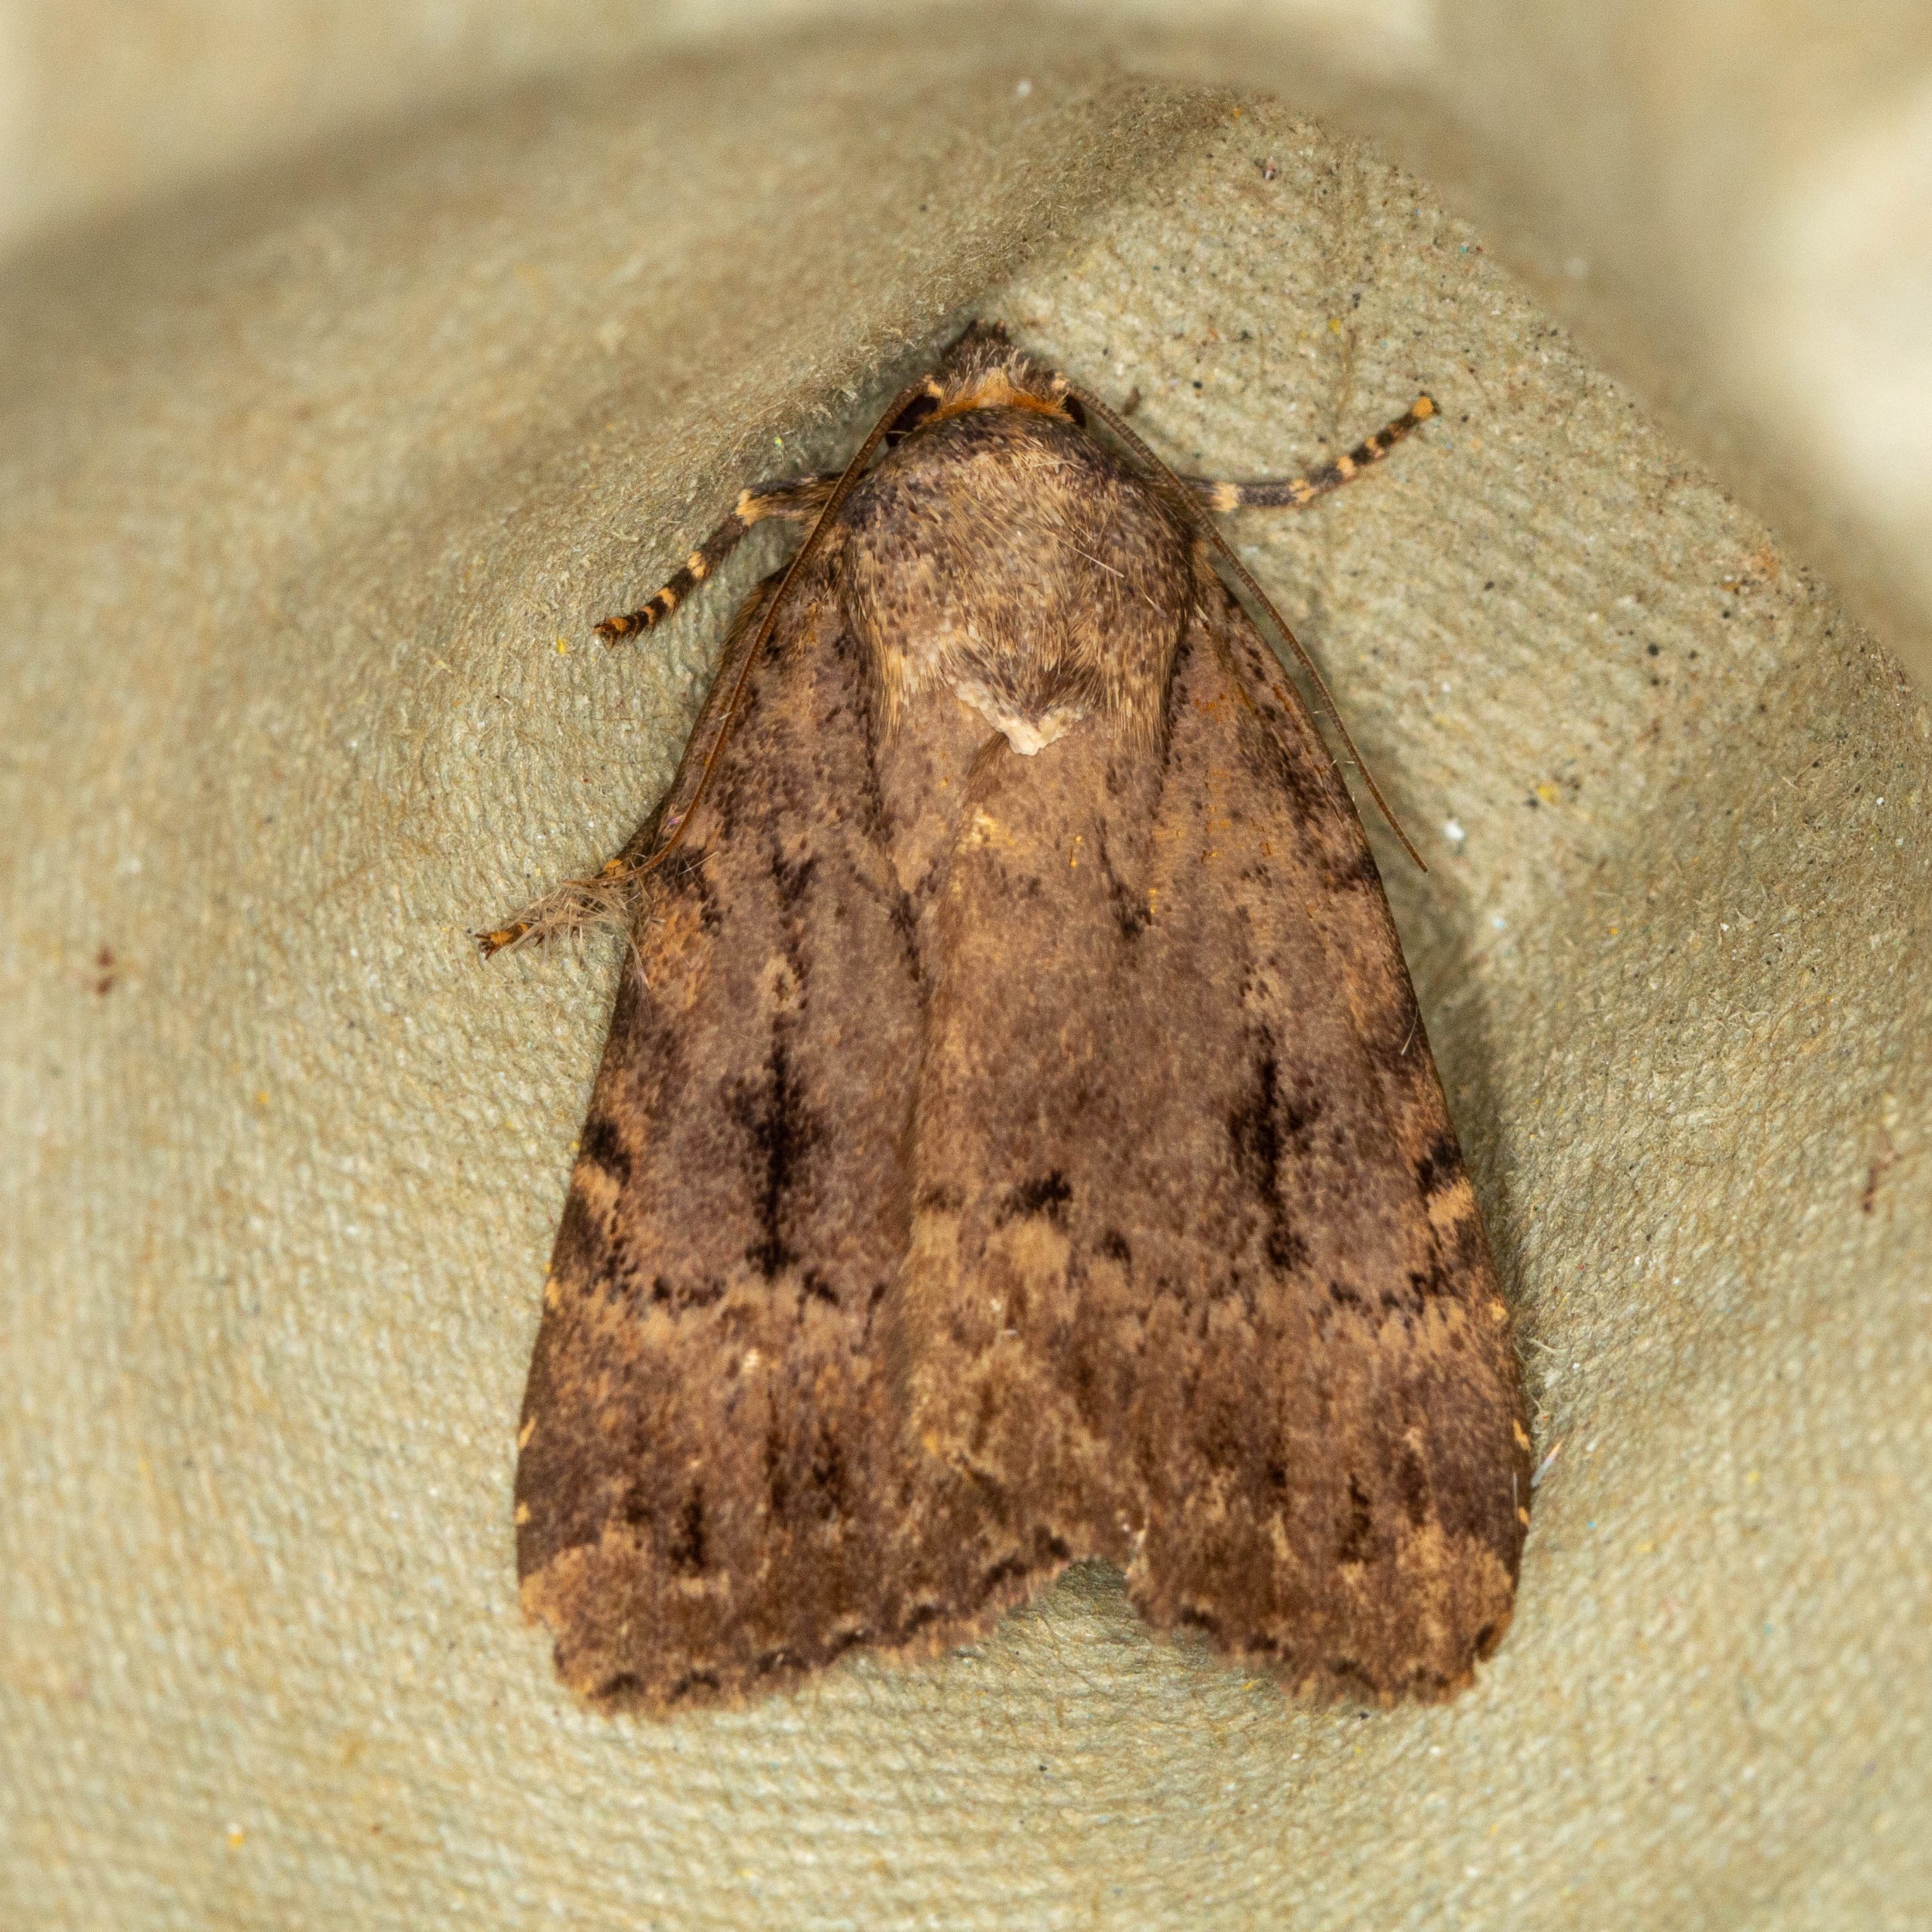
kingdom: Animalia
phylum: Arthropoda
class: Insecta
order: Lepidoptera
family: Noctuidae
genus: Amphipyra
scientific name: Amphipyra pyramidea
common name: Pyramideugle
